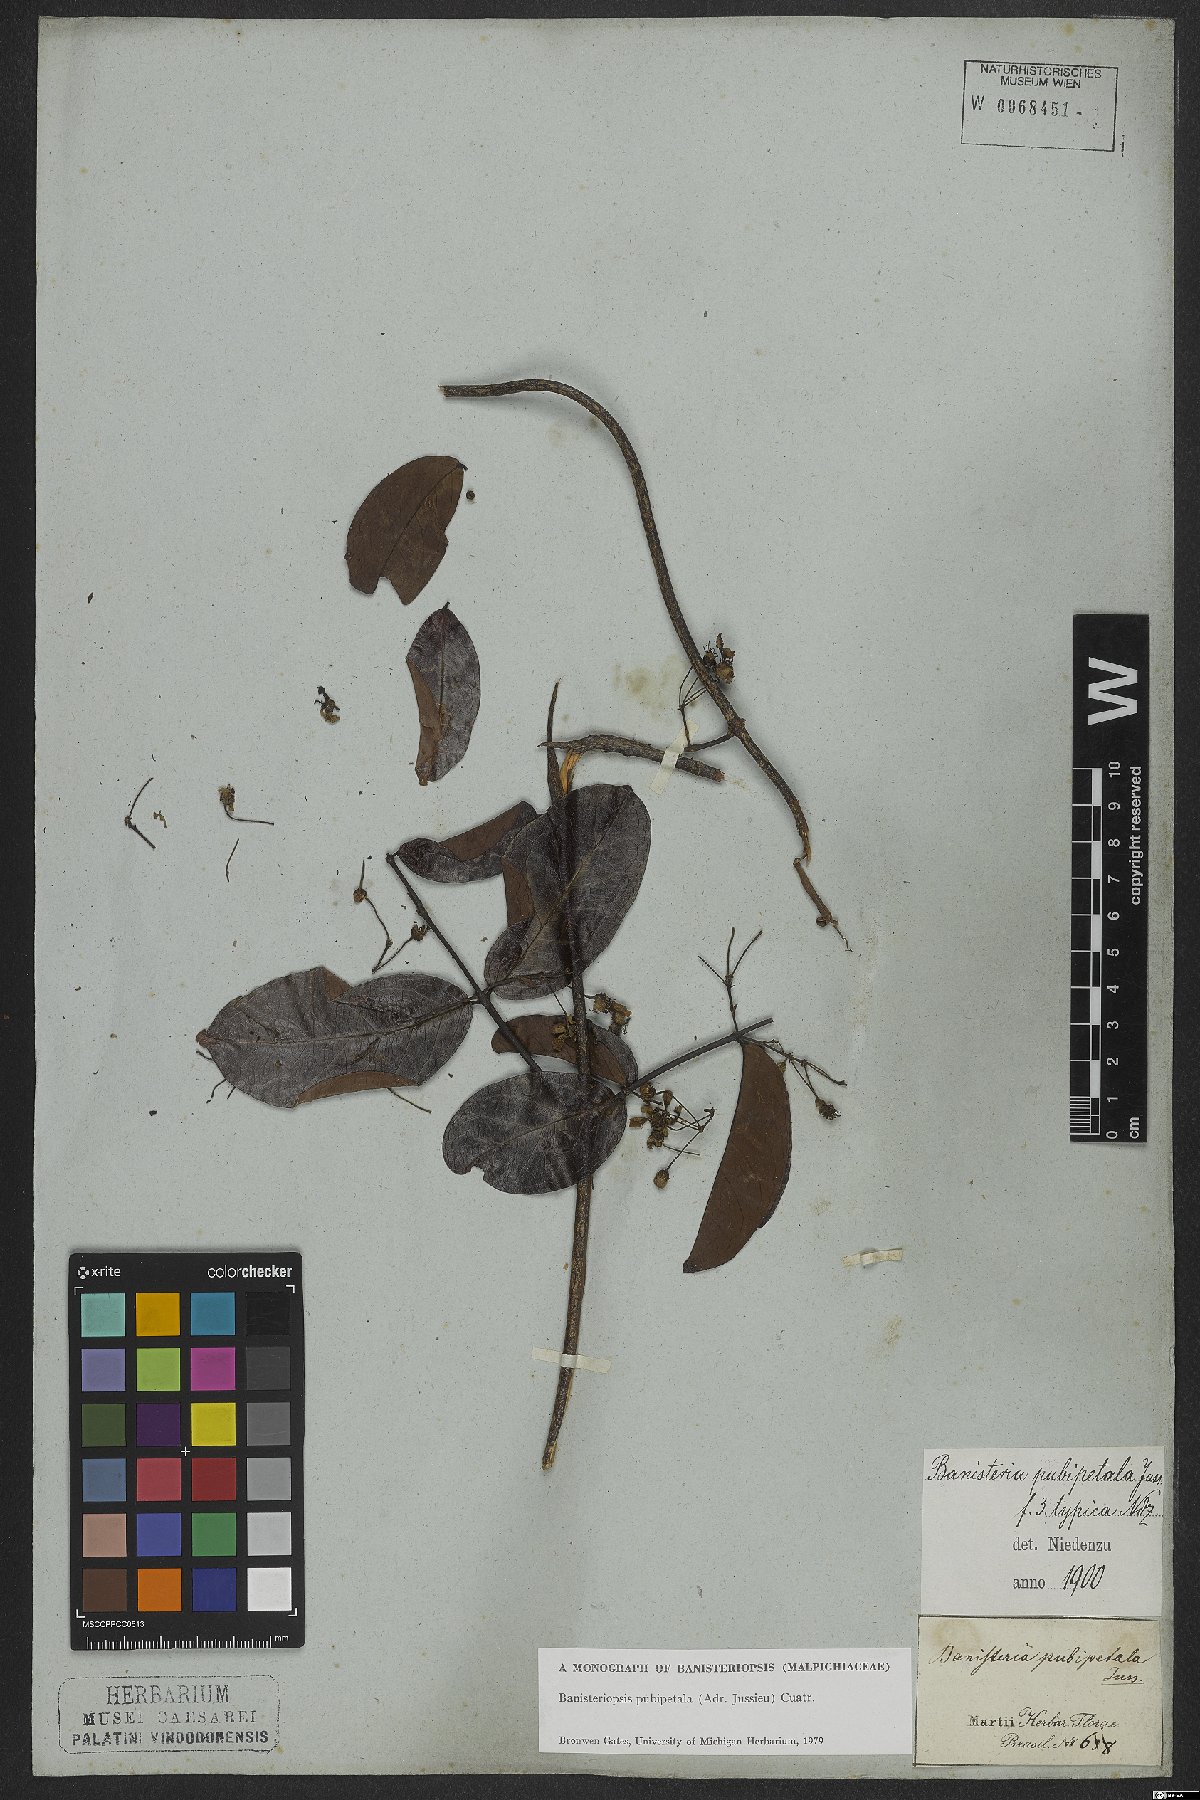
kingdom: Plantae
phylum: Tracheophyta
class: Magnoliopsida
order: Malpighiales
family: Malpighiaceae
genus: Diplopterys
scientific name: Diplopterys pubipetala
